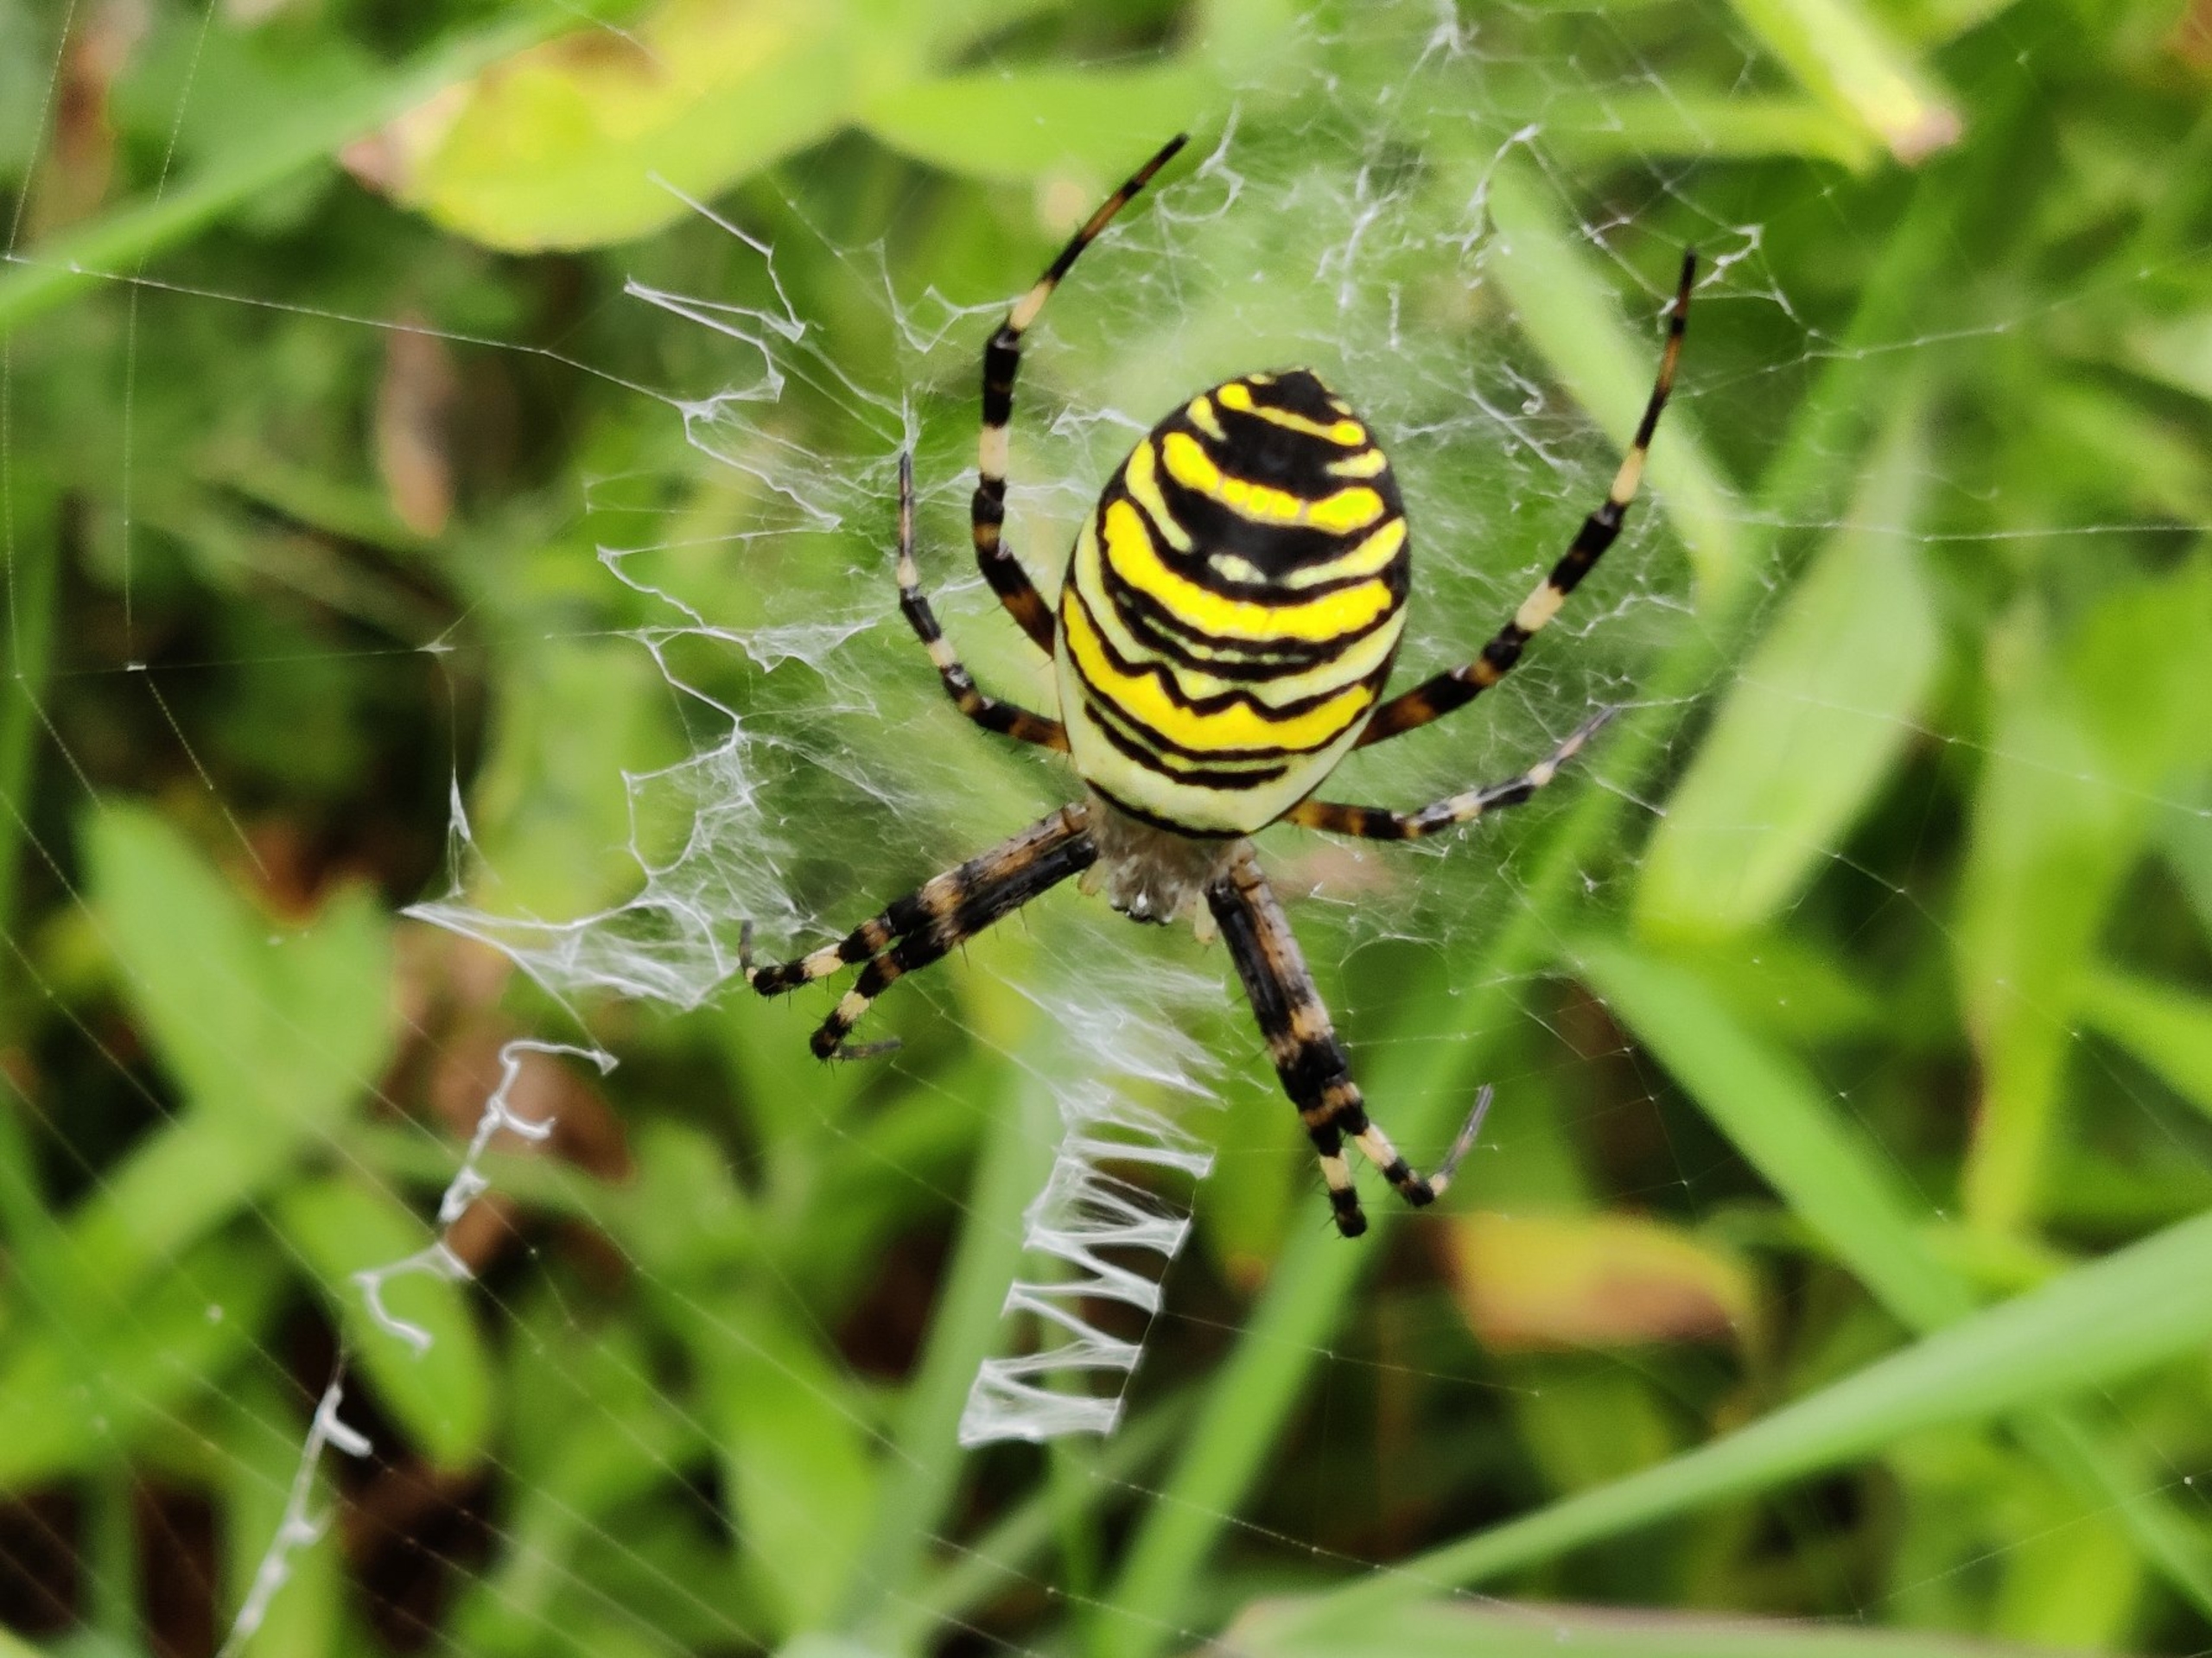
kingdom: Animalia
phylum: Arthropoda
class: Arachnida
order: Araneae
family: Araneidae
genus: Argiope
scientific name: Argiope bruennichi
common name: Hvepseedderkop
